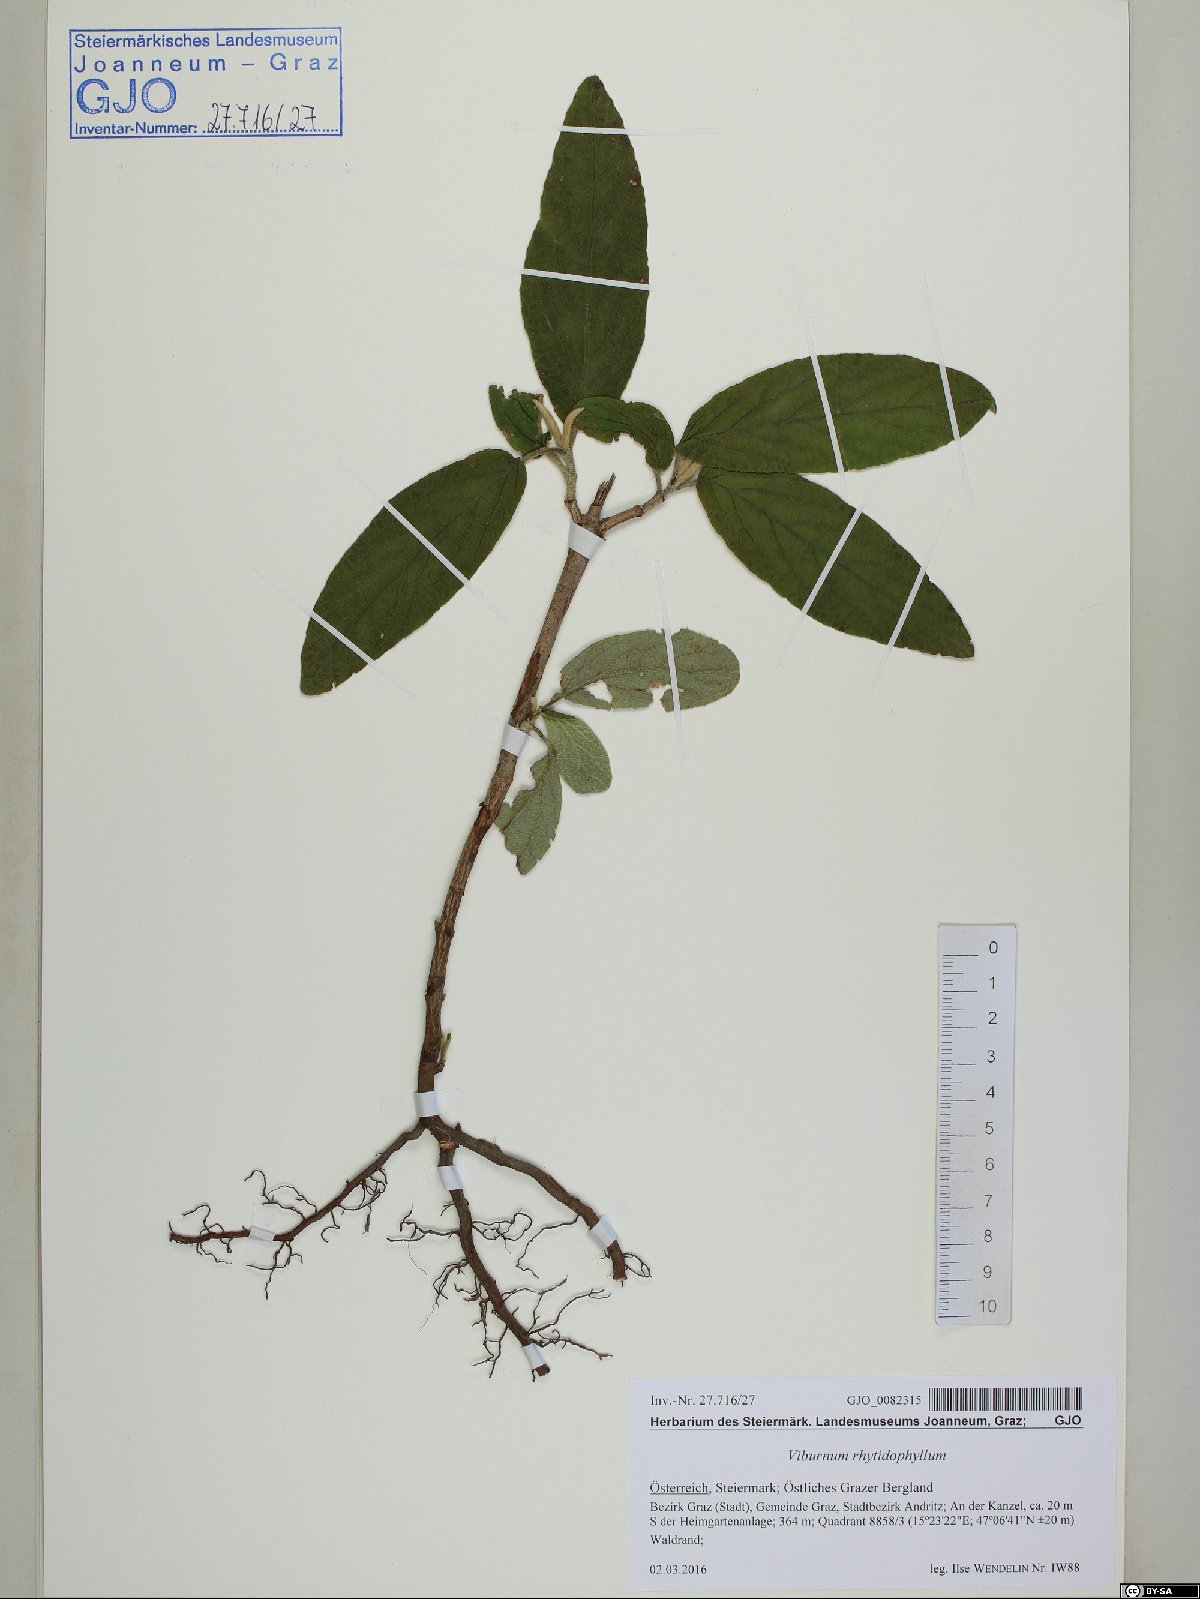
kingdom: Plantae
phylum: Tracheophyta
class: Magnoliopsida
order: Dipsacales
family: Viburnaceae
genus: Viburnum
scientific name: Viburnum rhytidophyllum
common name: Wrinkled viburnum
